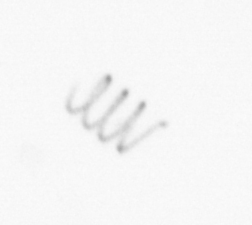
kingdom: Chromista
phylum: Ochrophyta
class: Bacillariophyceae
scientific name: Bacillariophyceae
